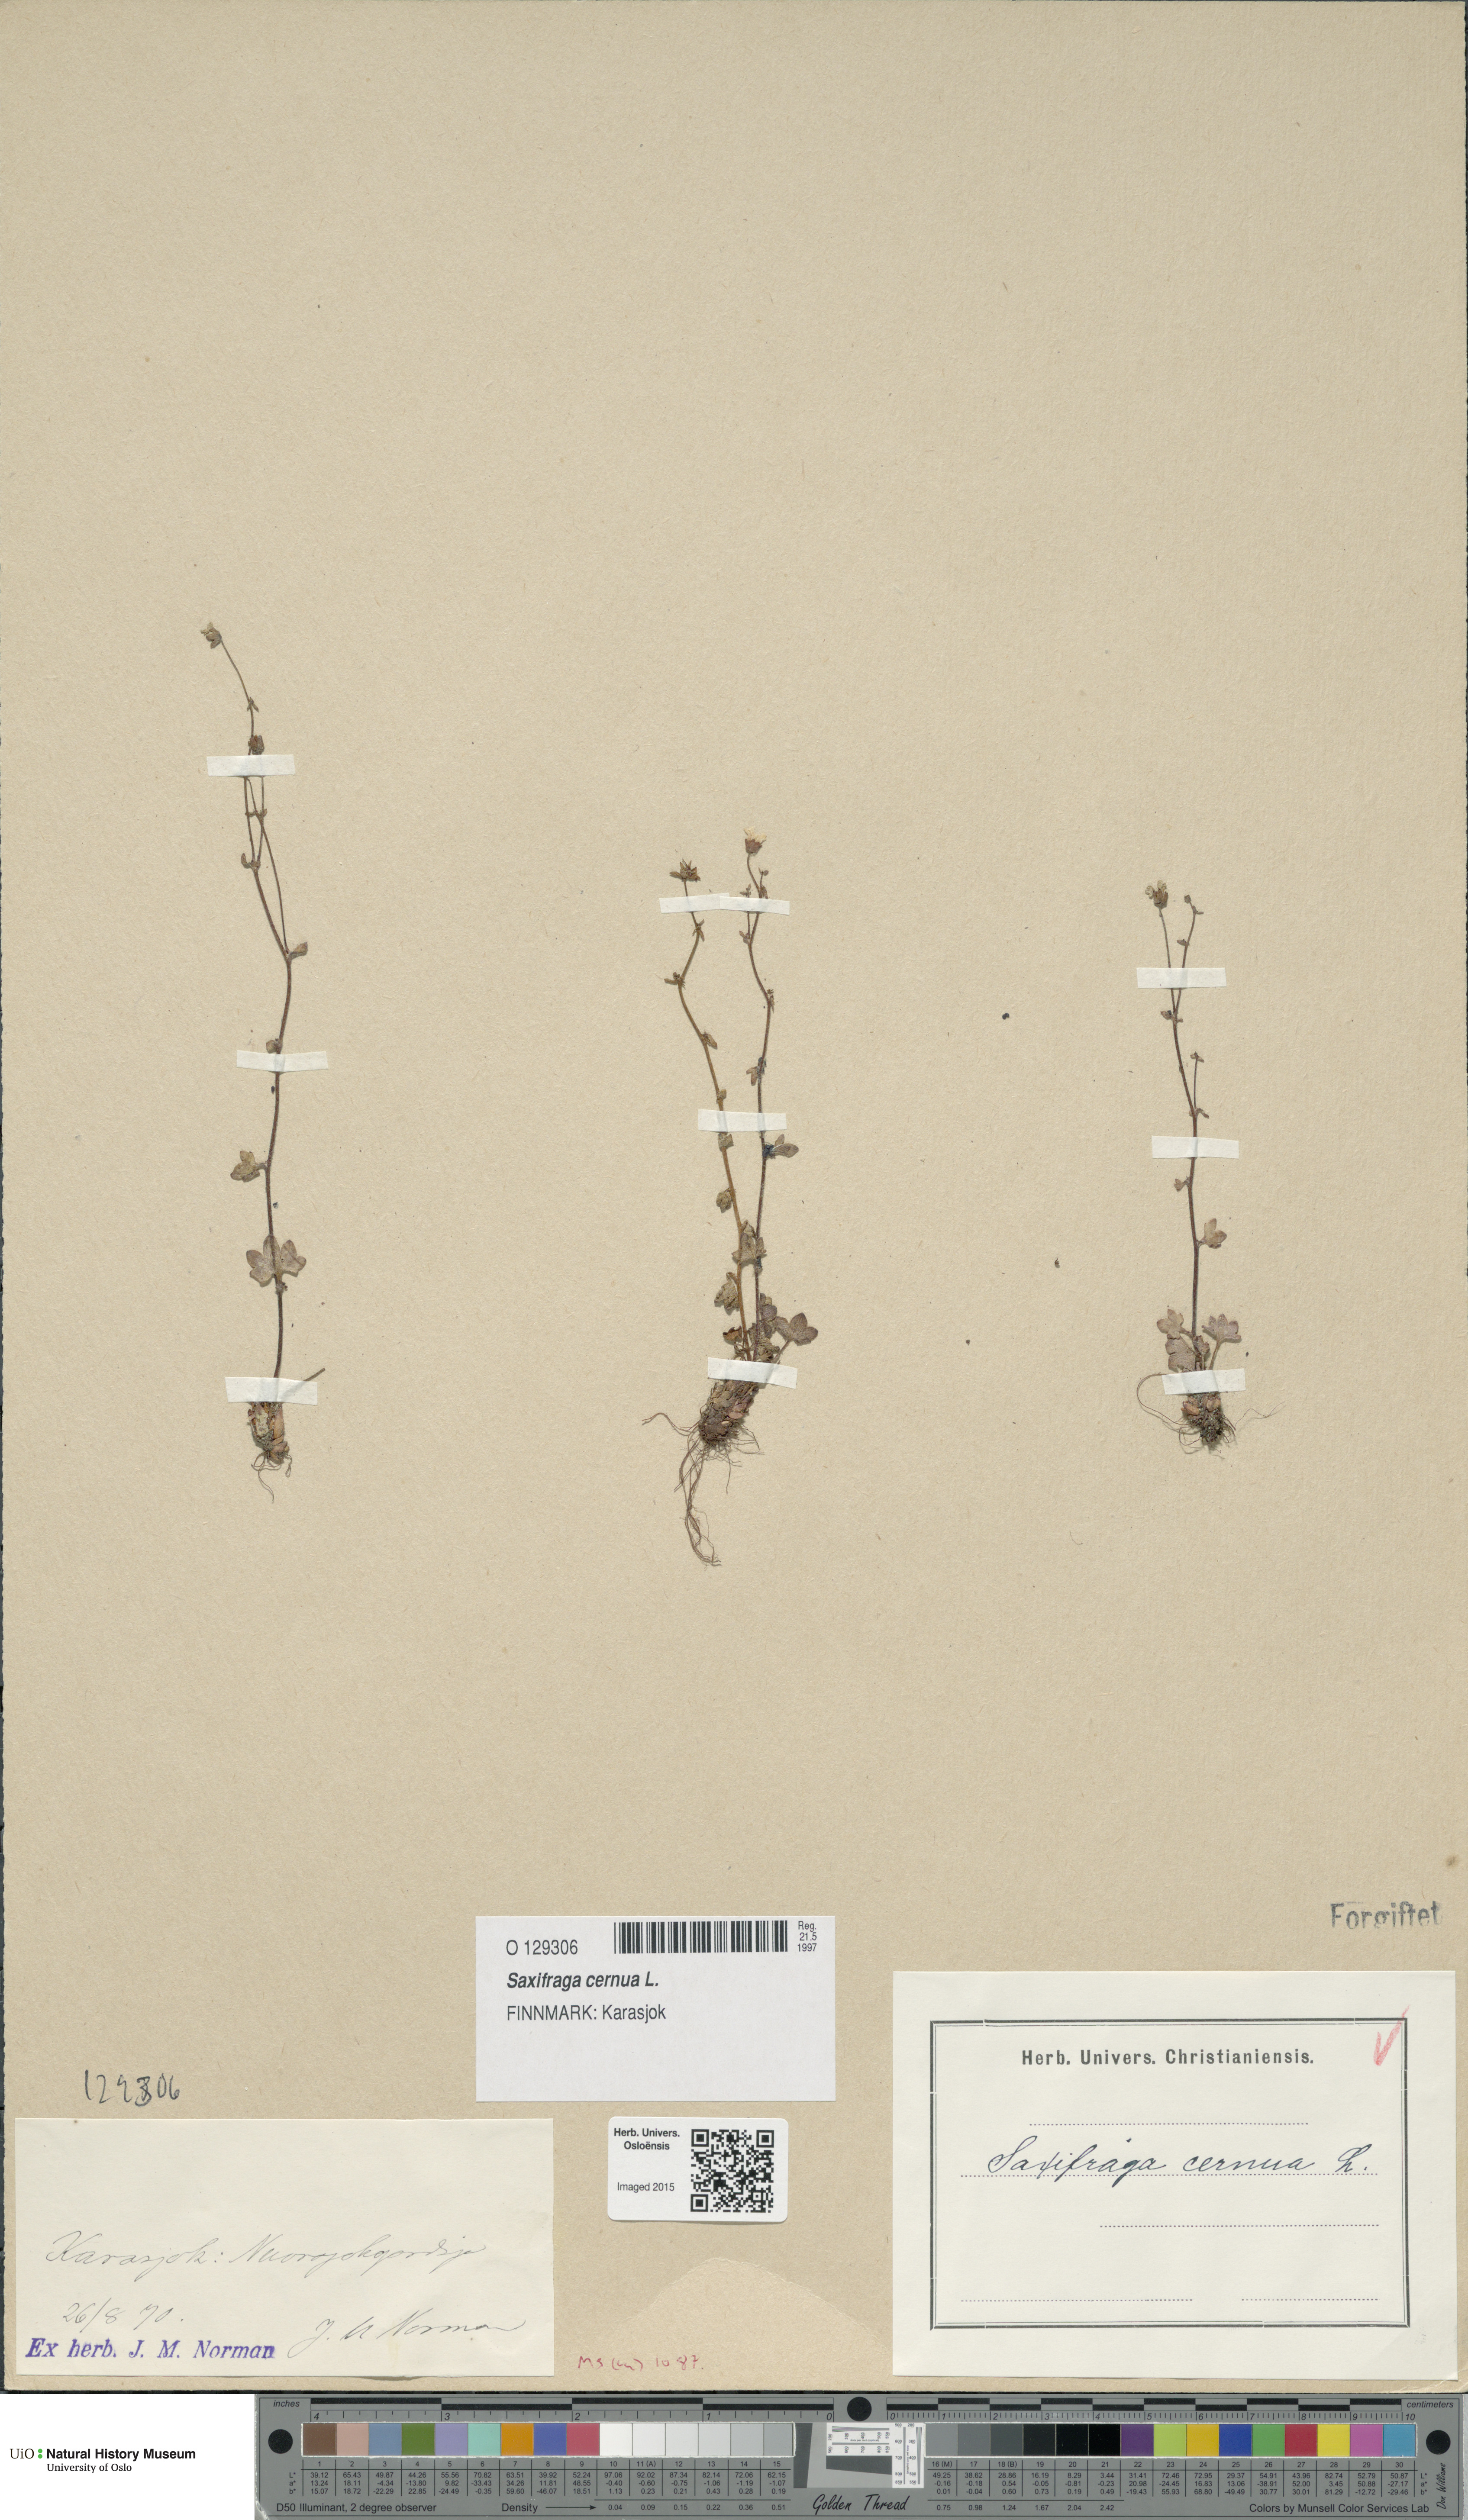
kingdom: Plantae
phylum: Tracheophyta
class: Magnoliopsida
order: Saxifragales
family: Saxifragaceae
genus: Saxifraga
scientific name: Saxifraga cernua
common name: Drooping saxifrage
